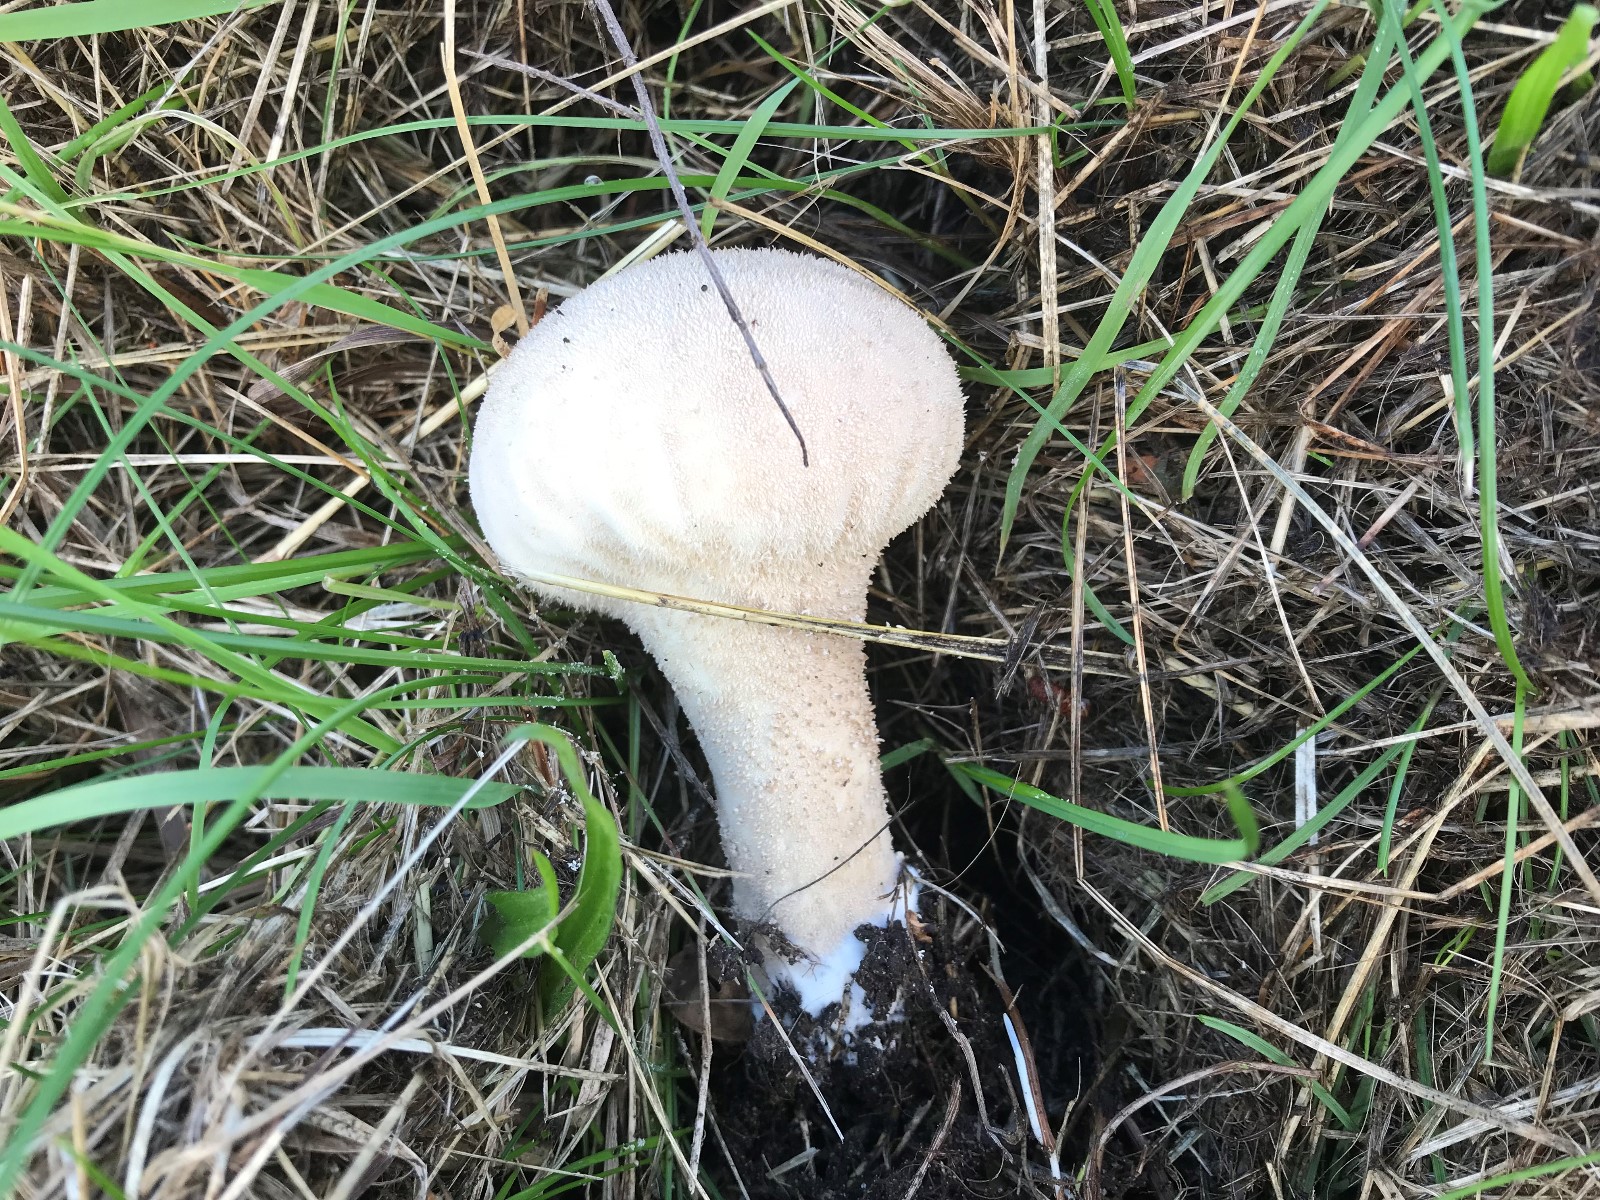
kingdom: Fungi
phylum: Basidiomycota
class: Agaricomycetes
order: Agaricales
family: Lycoperdaceae
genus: Lycoperdon
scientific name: Lycoperdon excipuliforme
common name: højstokket støvbold
